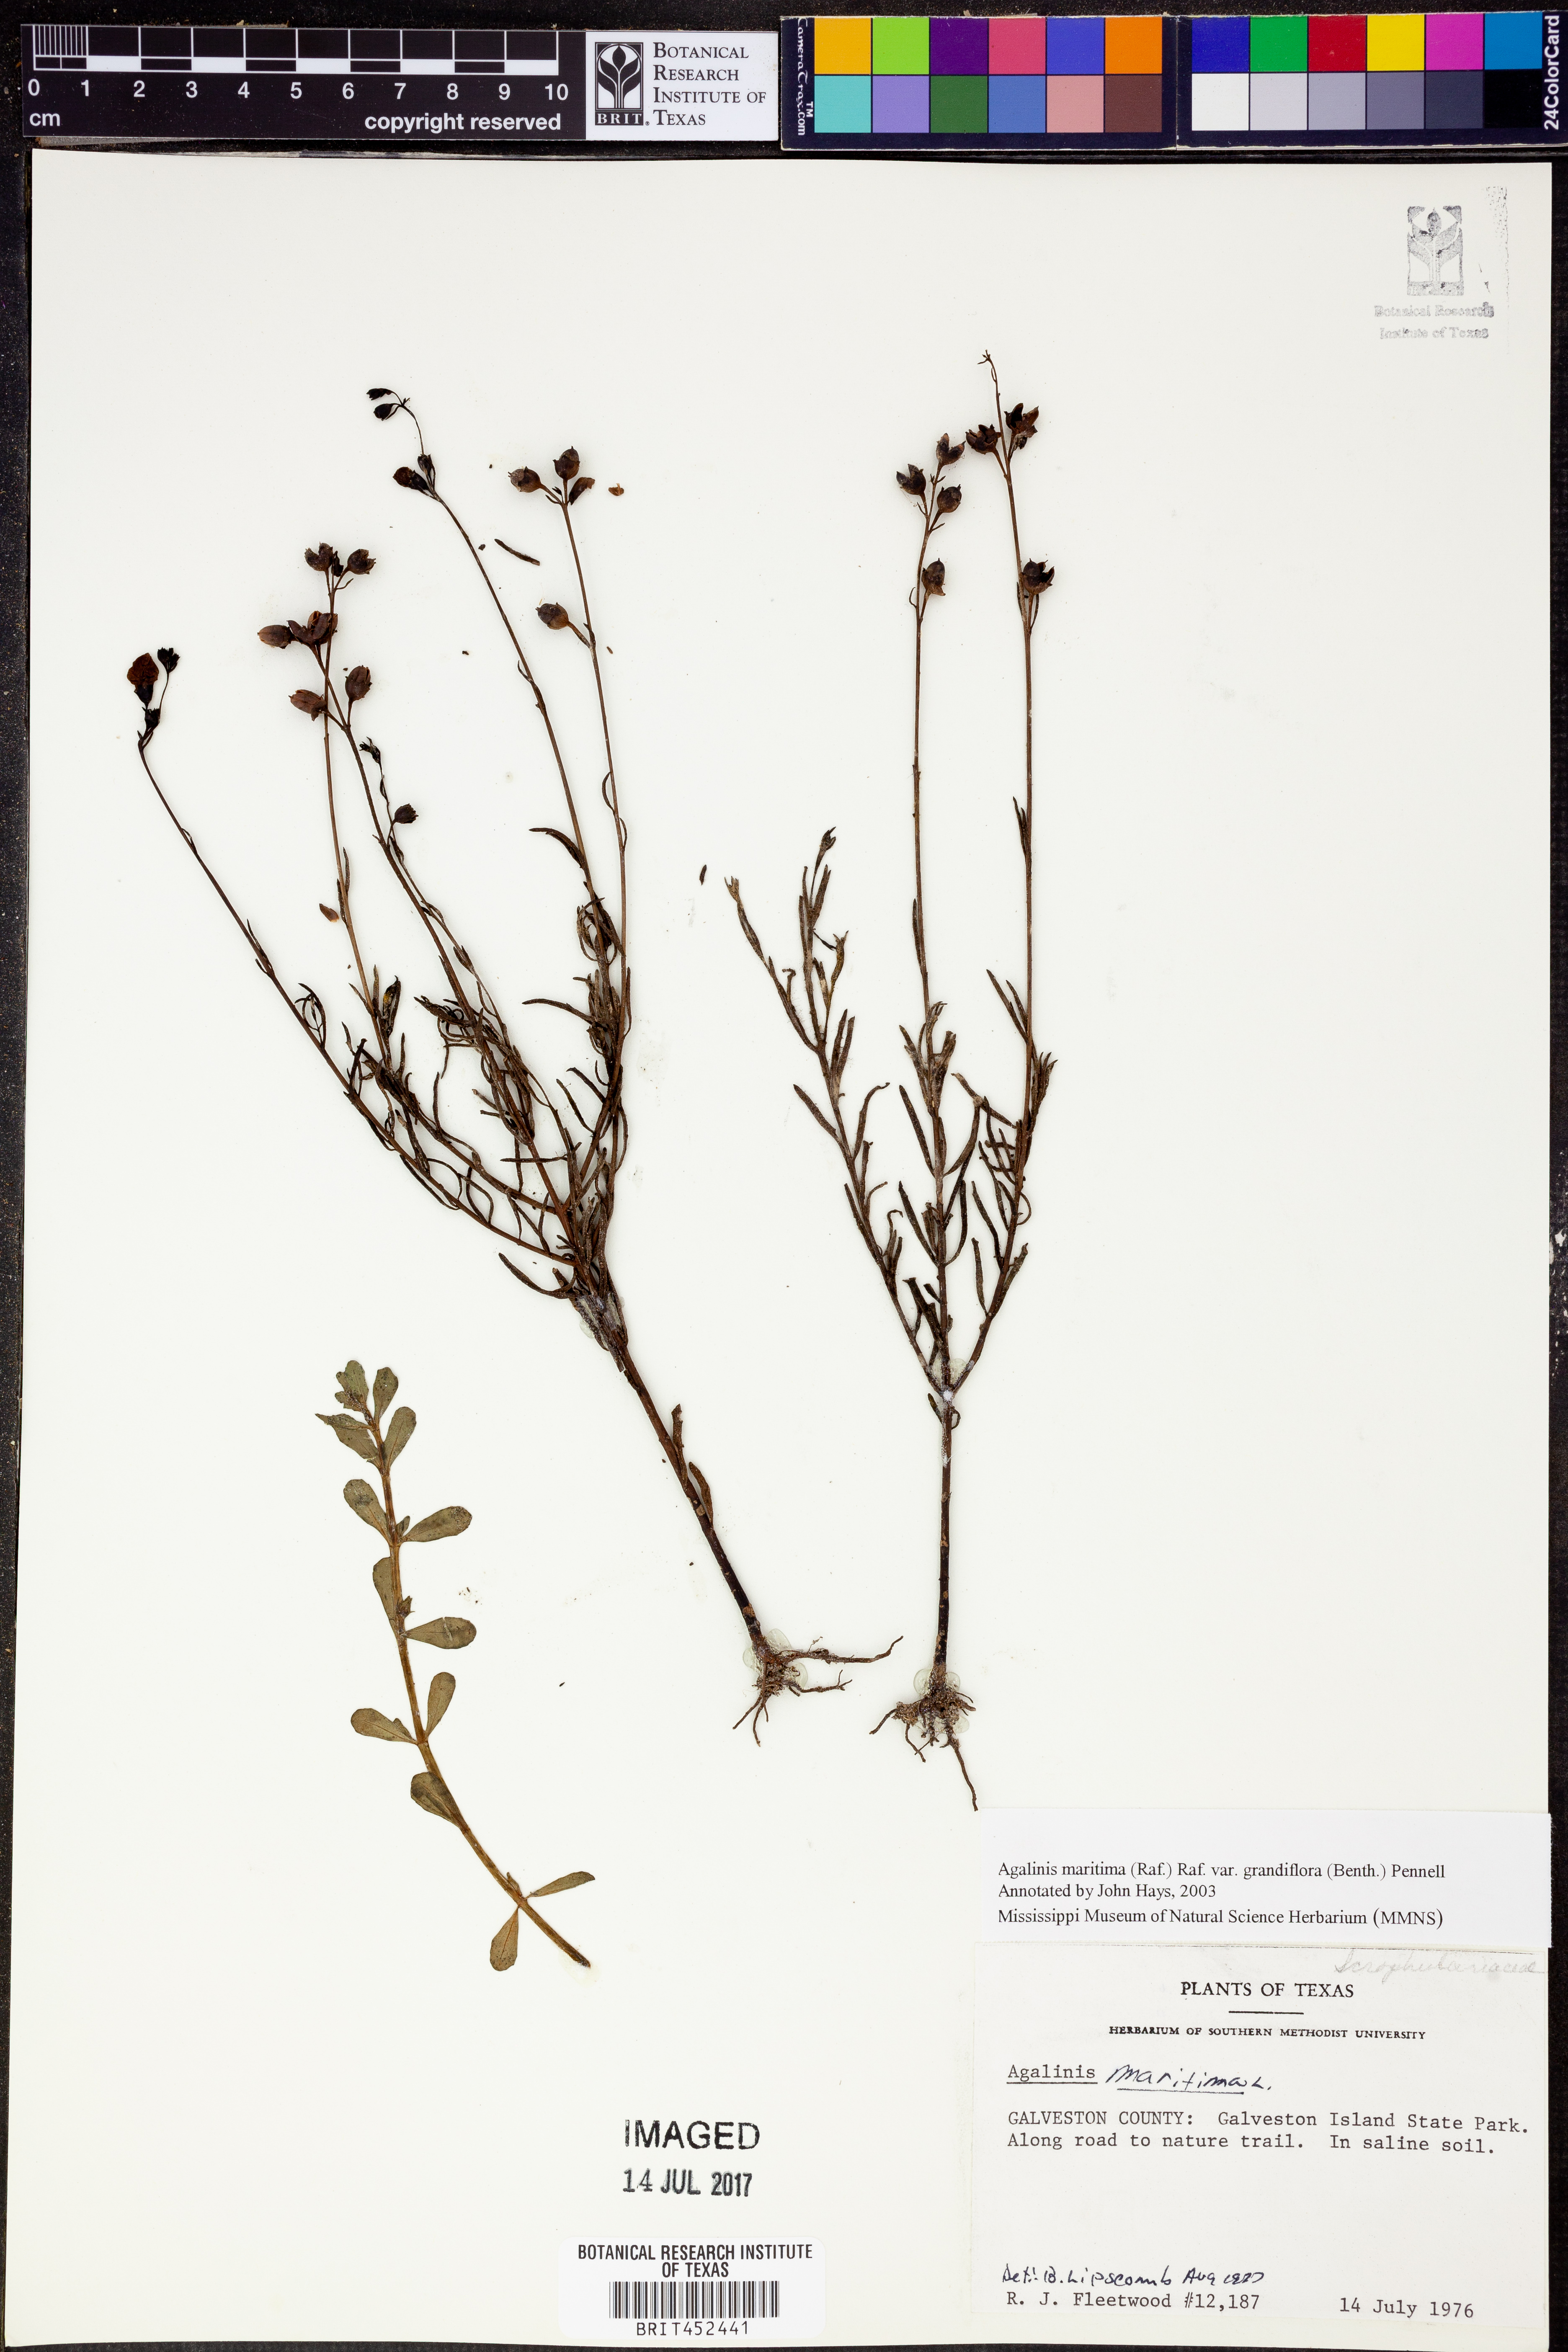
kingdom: Plantae
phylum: Tracheophyta
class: Magnoliopsida
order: Lamiales
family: Orobanchaceae
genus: Agalinis
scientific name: Agalinis harperi
